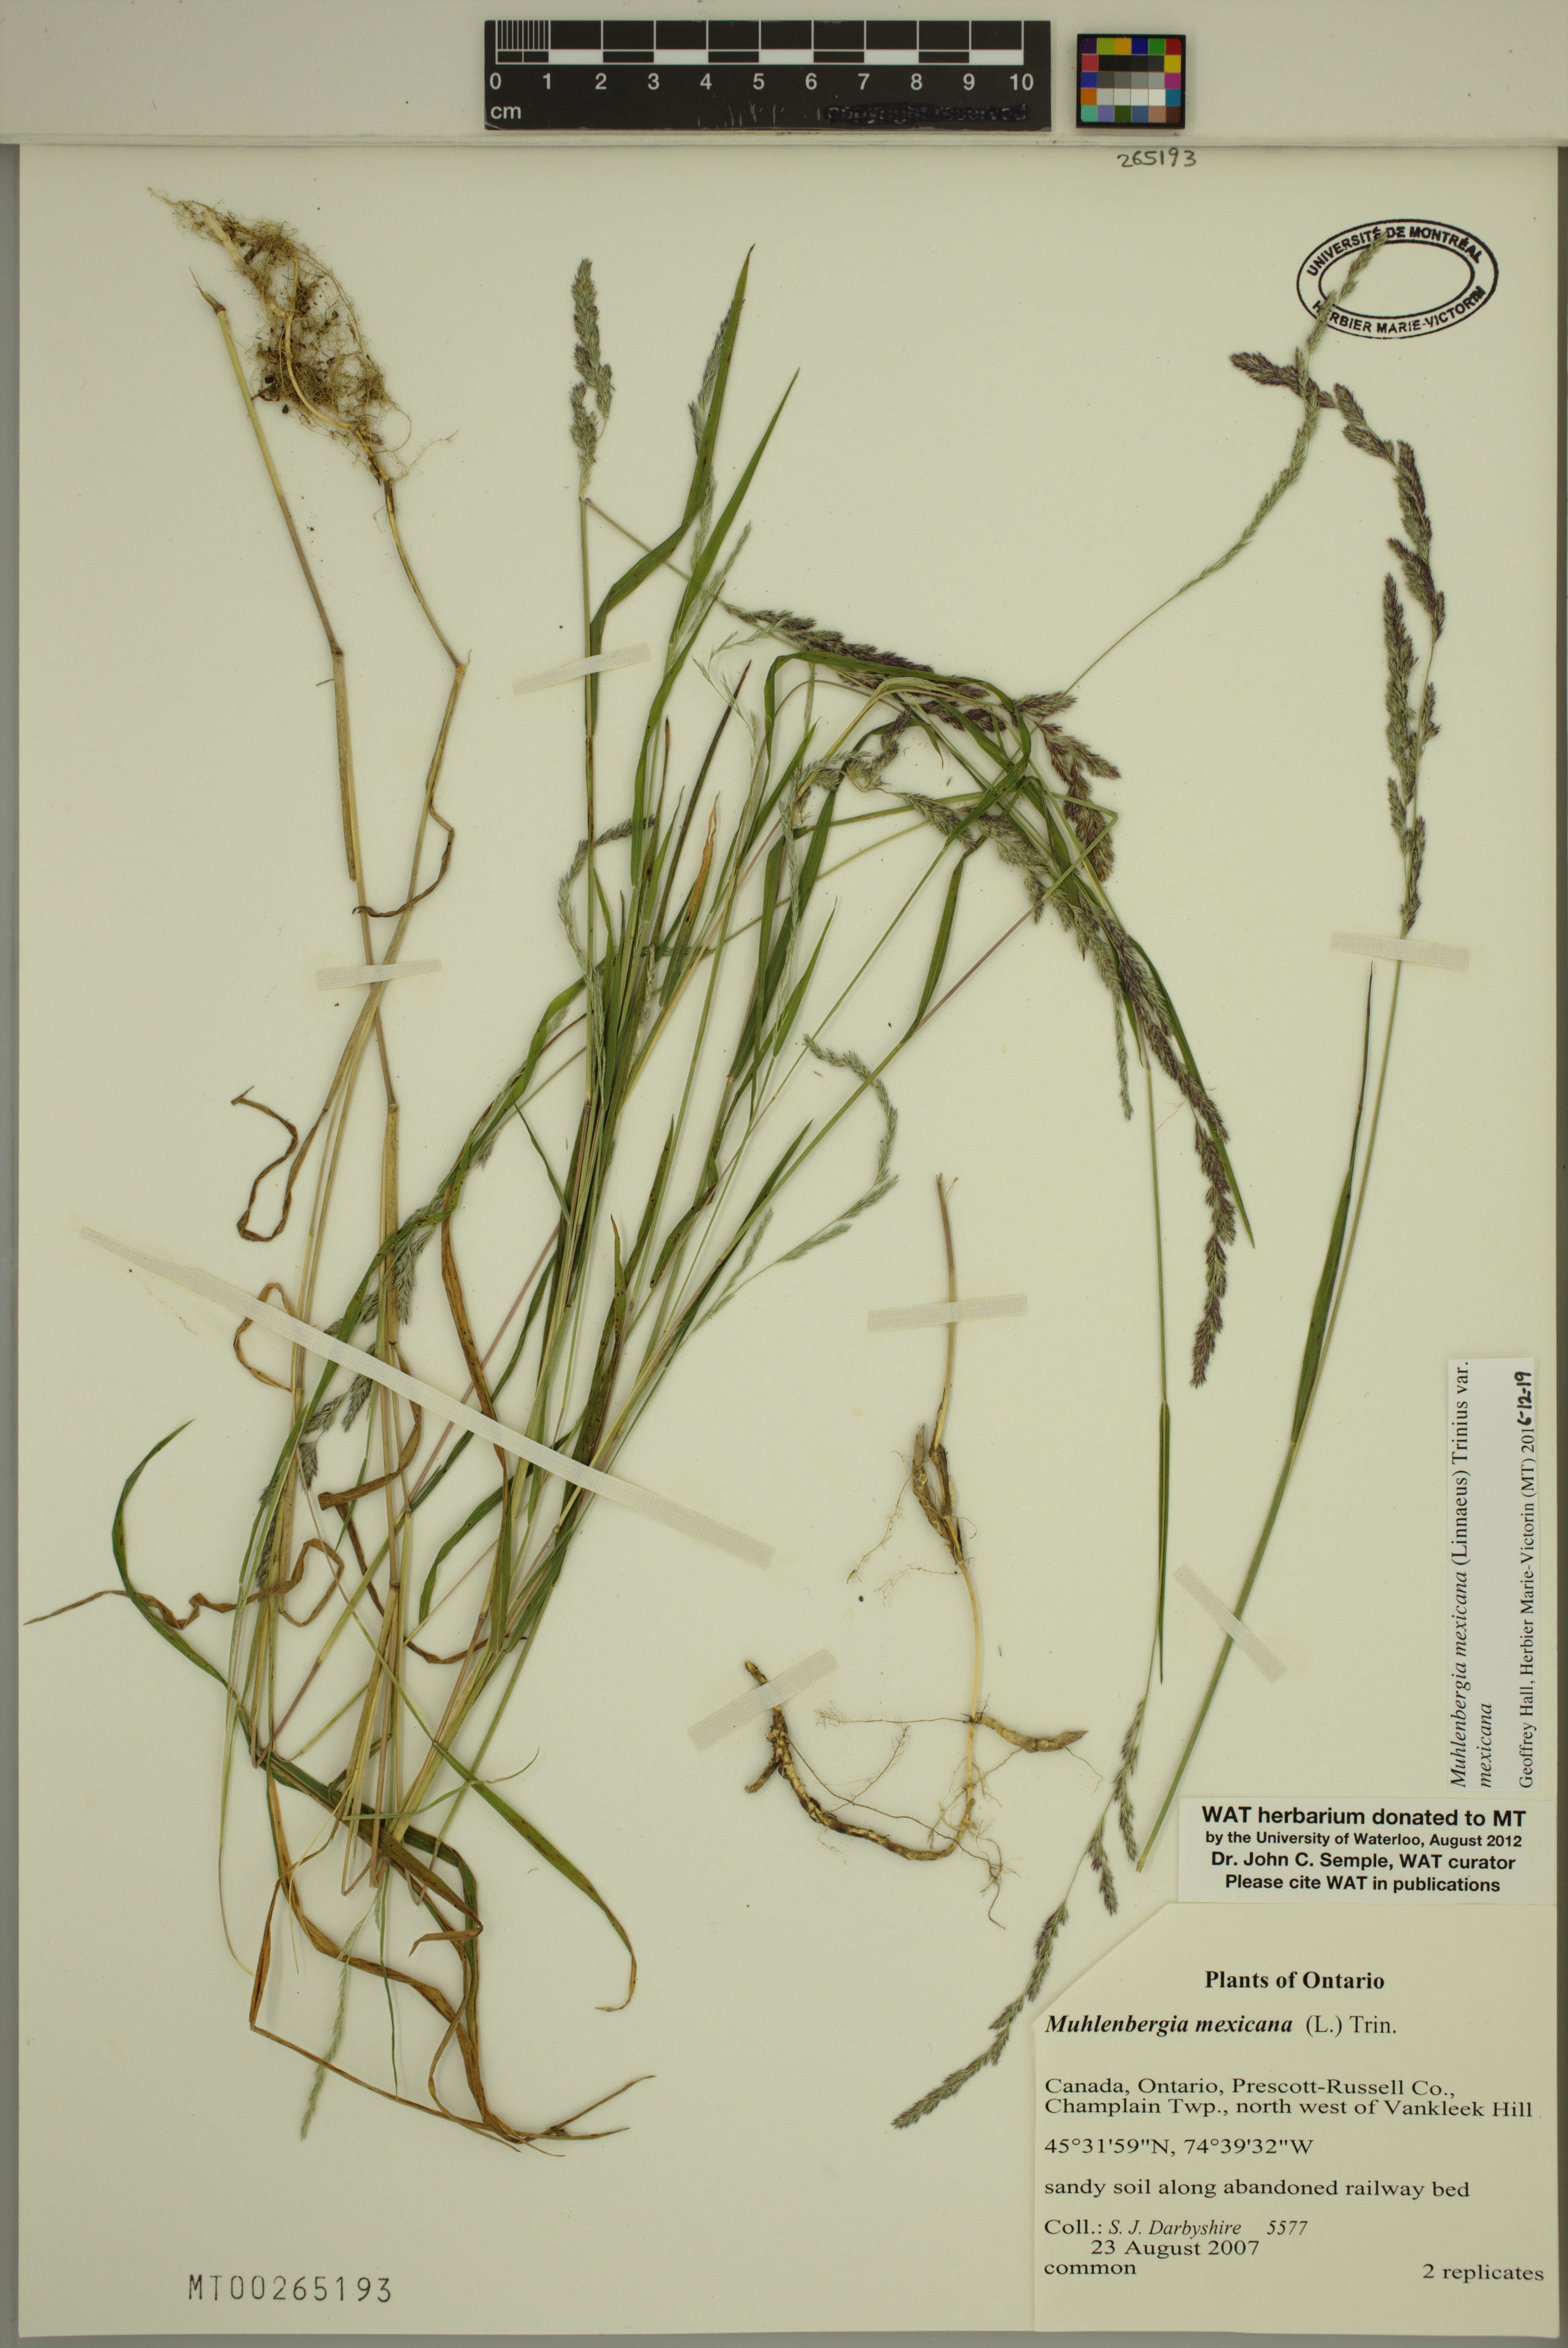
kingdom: Plantae
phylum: Tracheophyta
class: Liliopsida
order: Poales
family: Poaceae
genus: Muhlenbergia
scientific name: Muhlenbergia mexicana
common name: Mexican muhly
